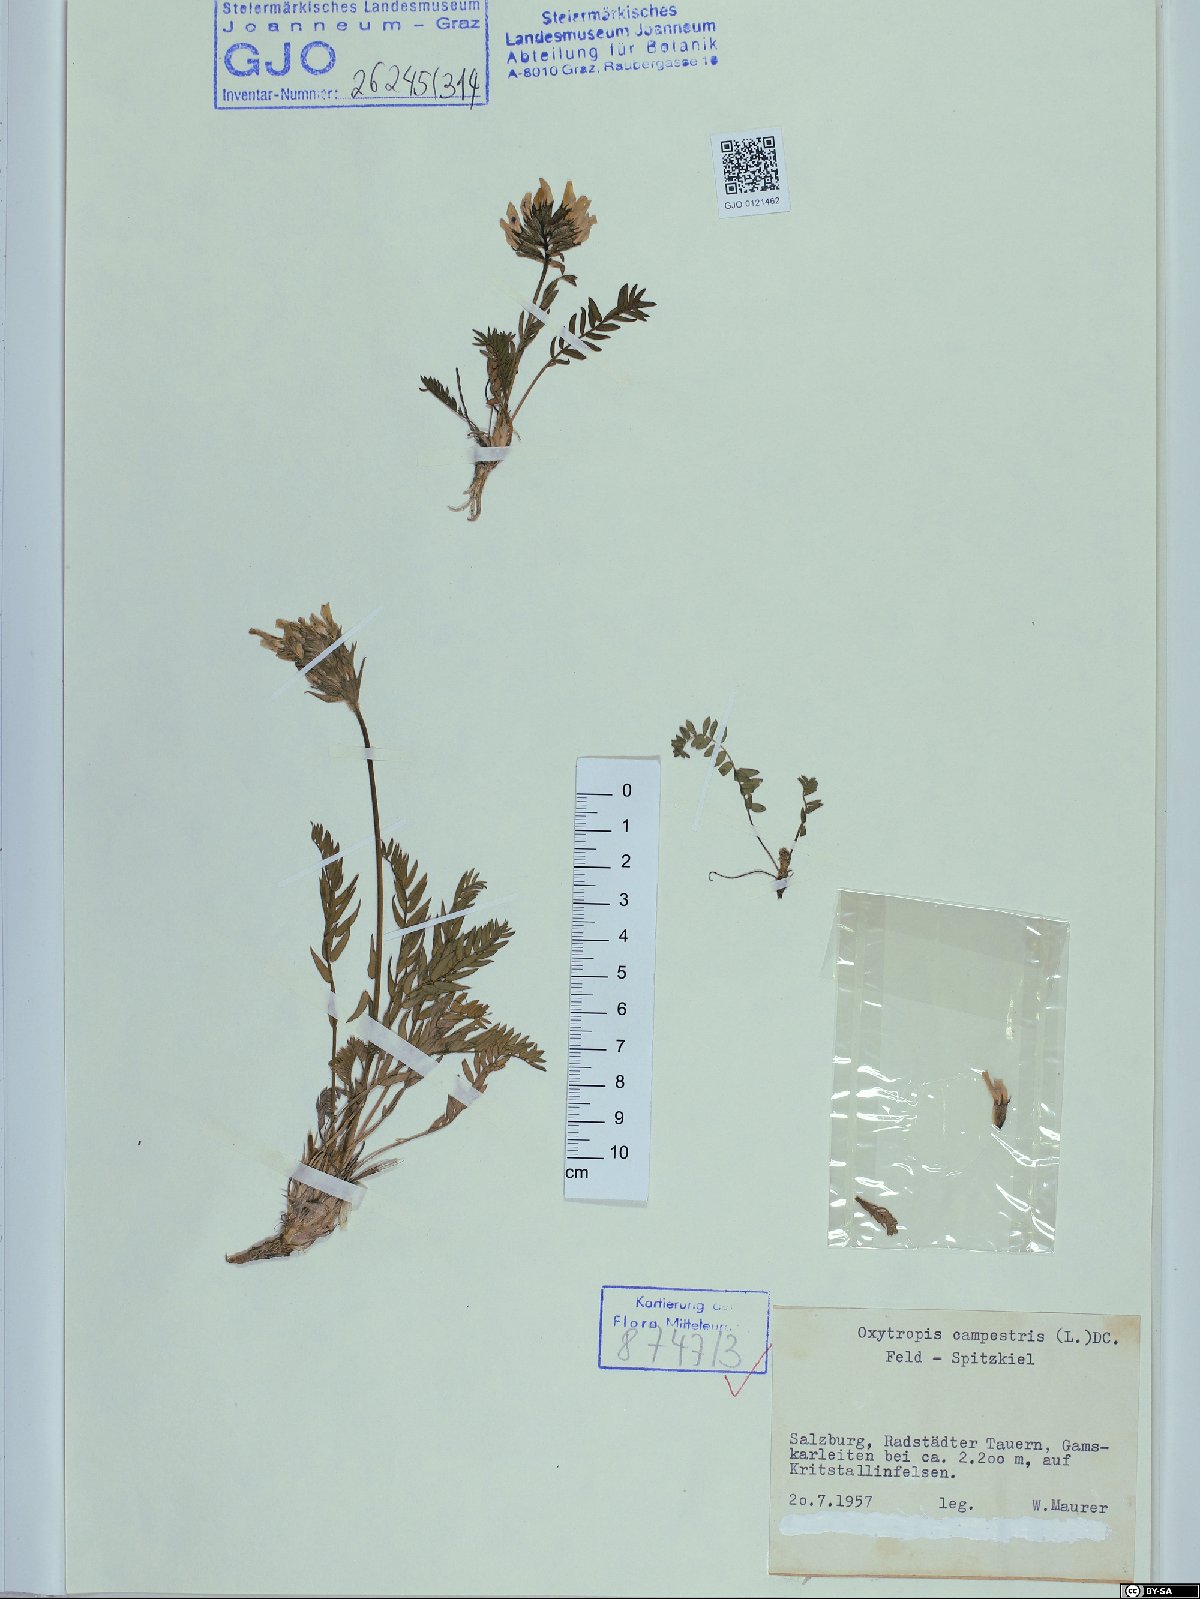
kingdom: Plantae
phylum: Tracheophyta
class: Magnoliopsida
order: Fabales
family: Fabaceae
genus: Oxytropis
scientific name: Oxytropis campestris
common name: Field locoweed
